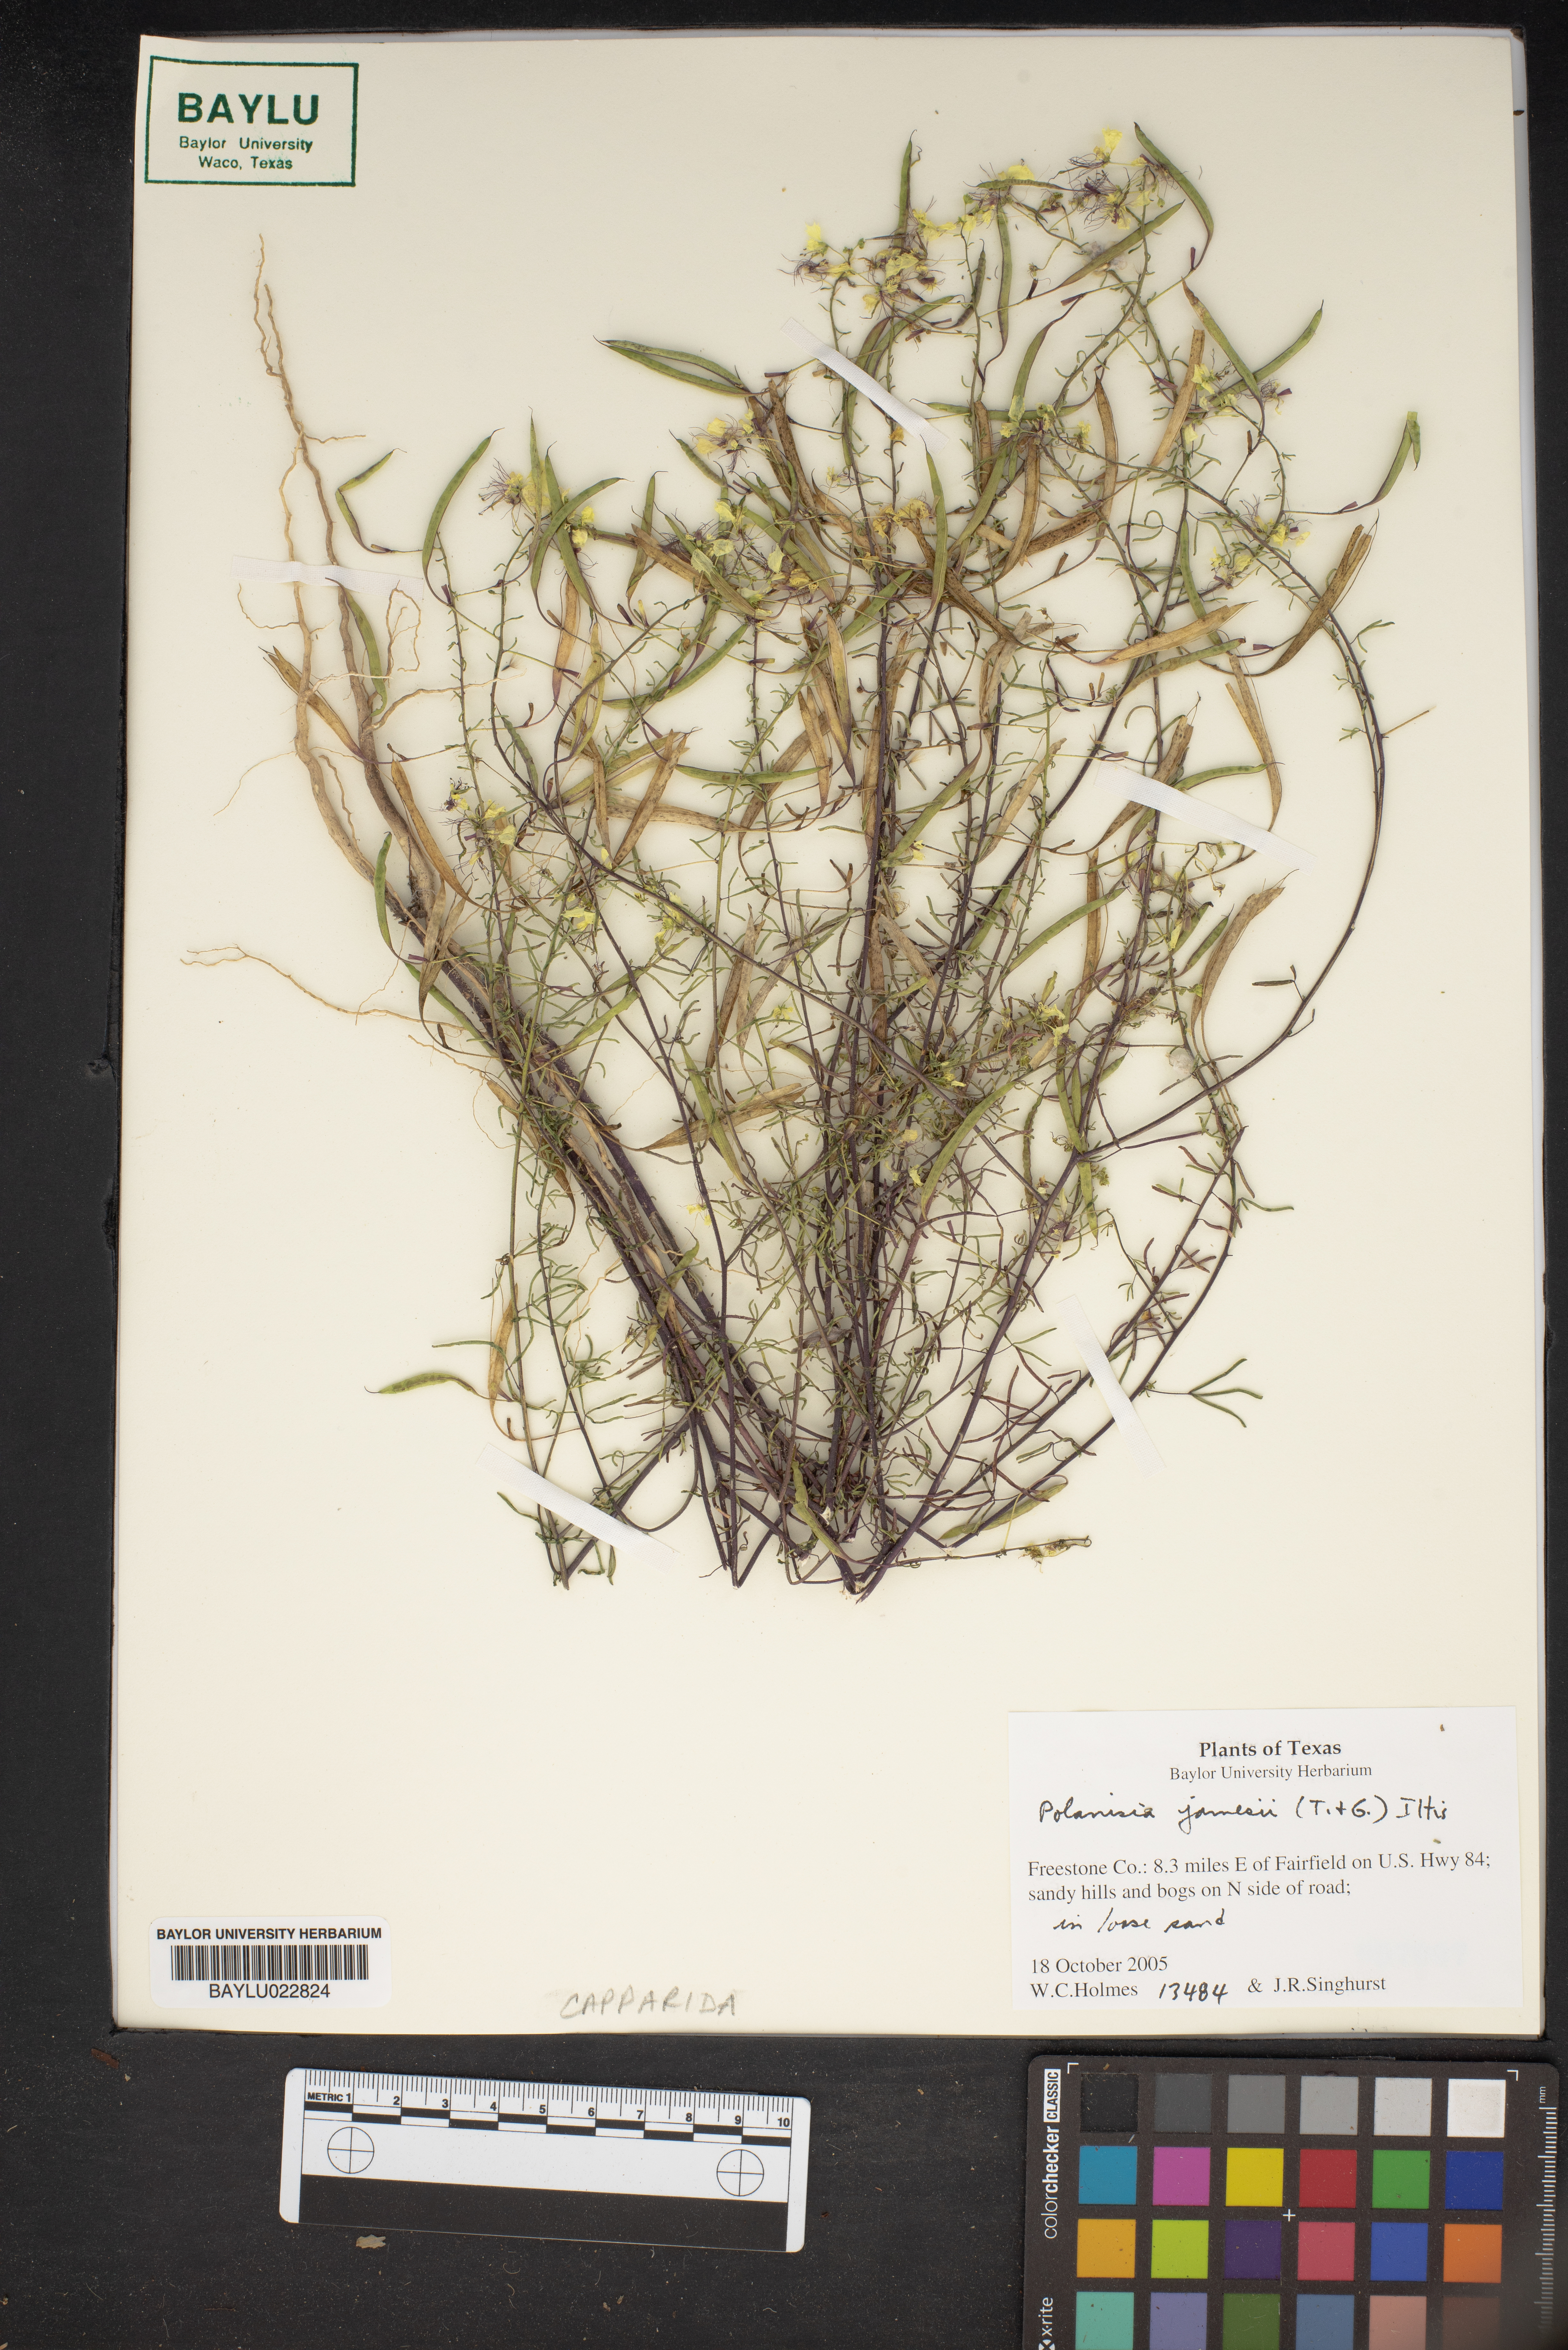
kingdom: Plantae
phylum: Tracheophyta
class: Magnoliopsida
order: Brassicales
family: Cleomaceae
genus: Polanisia
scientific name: Polanisia jamesii
